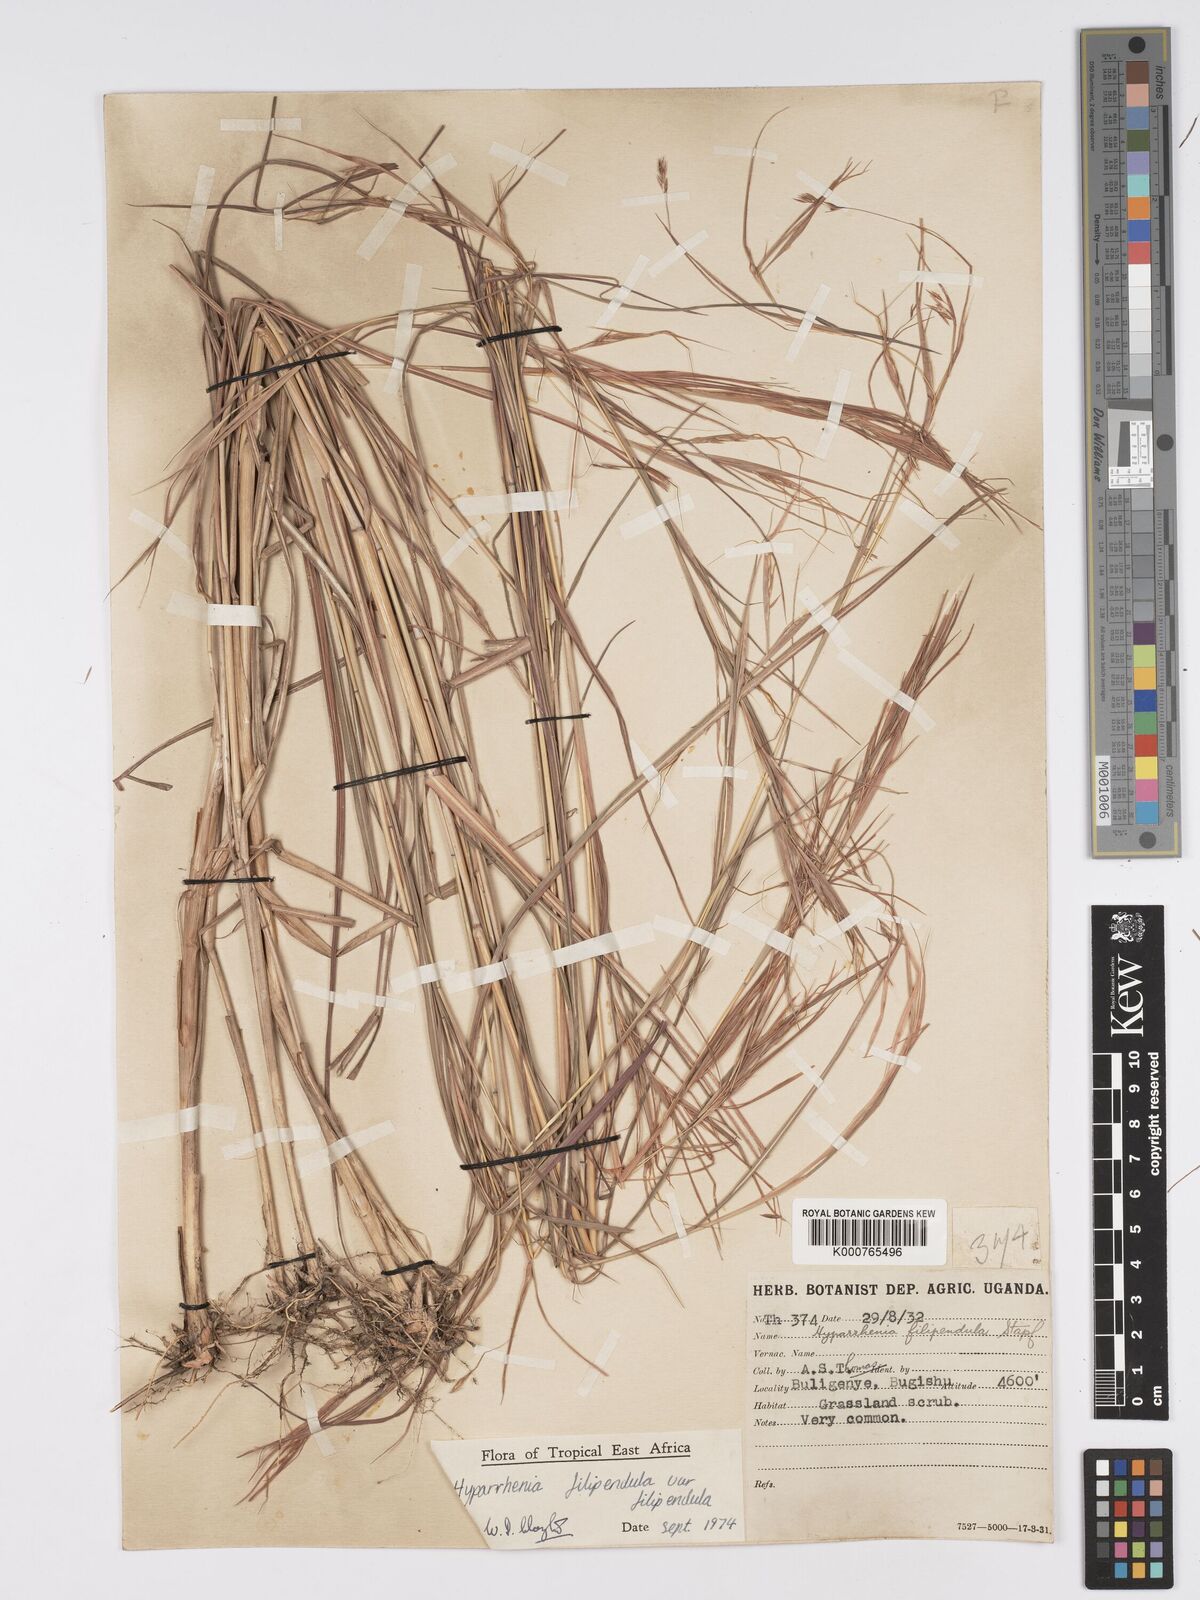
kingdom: Plantae
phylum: Tracheophyta
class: Liliopsida
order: Poales
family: Poaceae
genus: Hyparrhenia
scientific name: Hyparrhenia filipendula
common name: Tambookie grass
